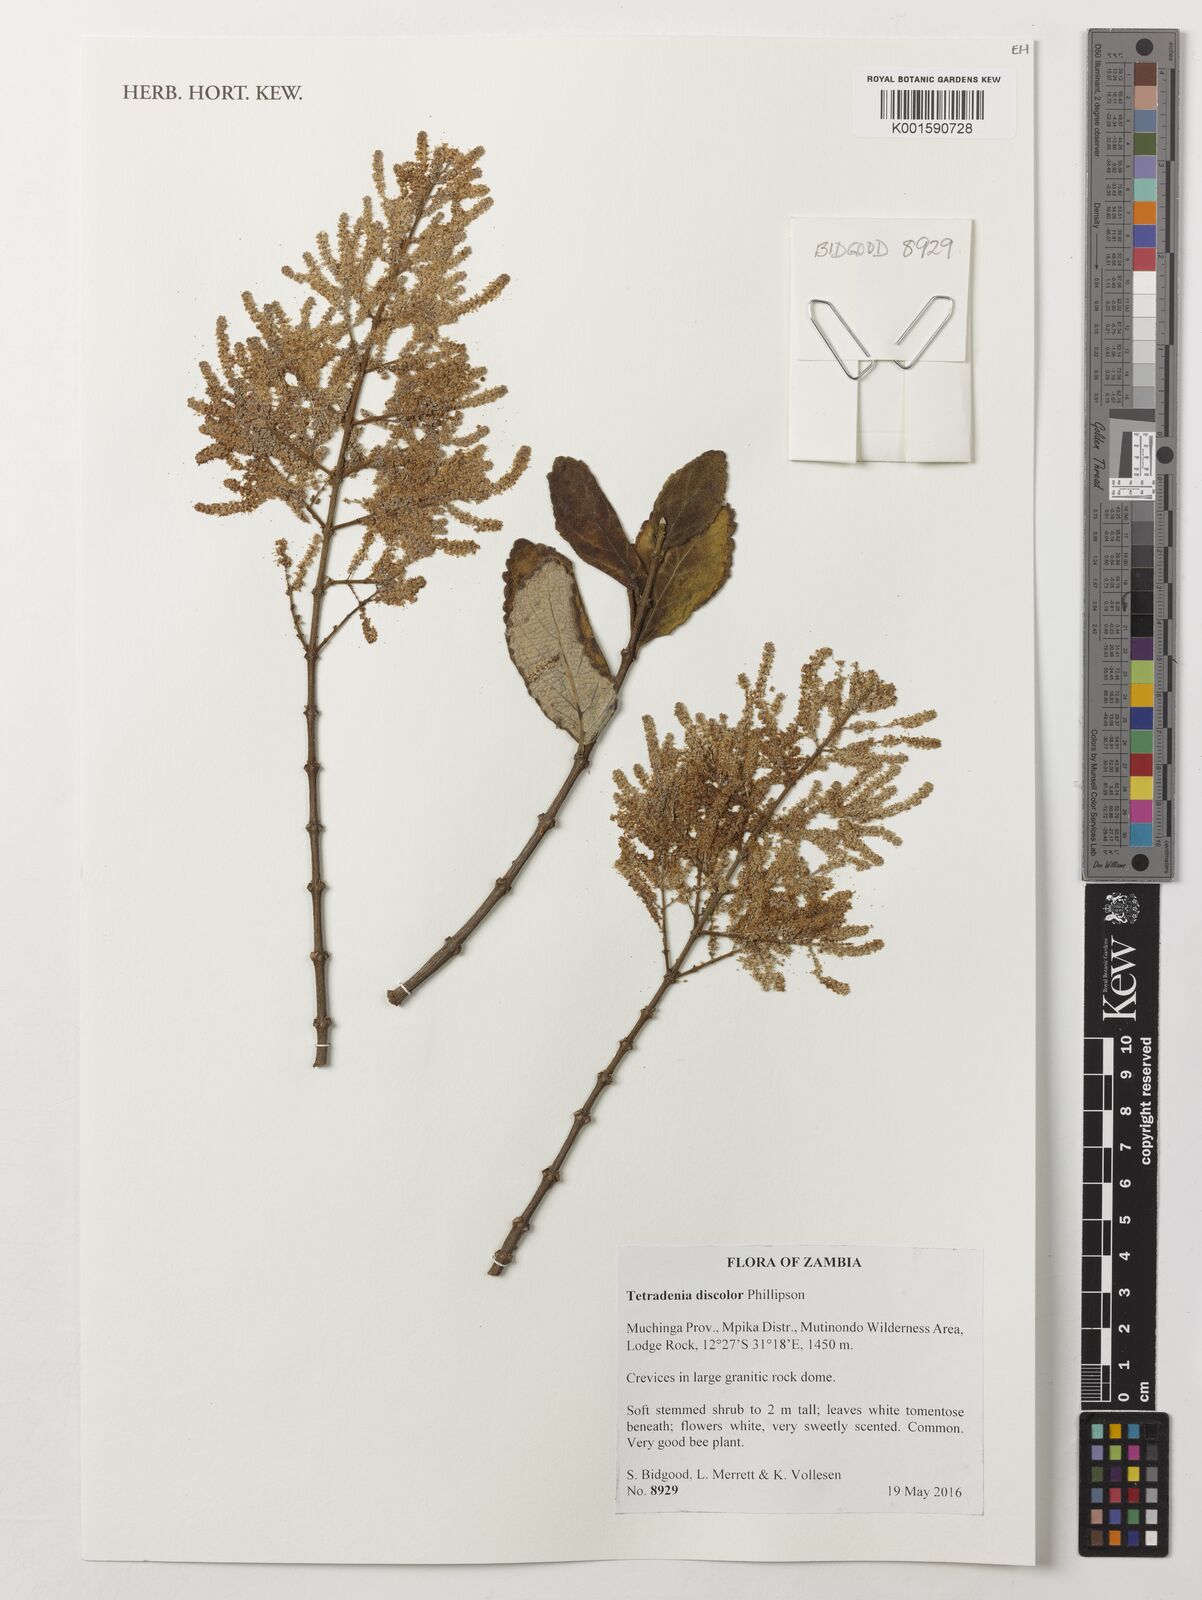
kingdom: Plantae
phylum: Tracheophyta
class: Magnoliopsida
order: Lamiales
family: Lamiaceae
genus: Tetradenia
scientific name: Tetradenia discolor
